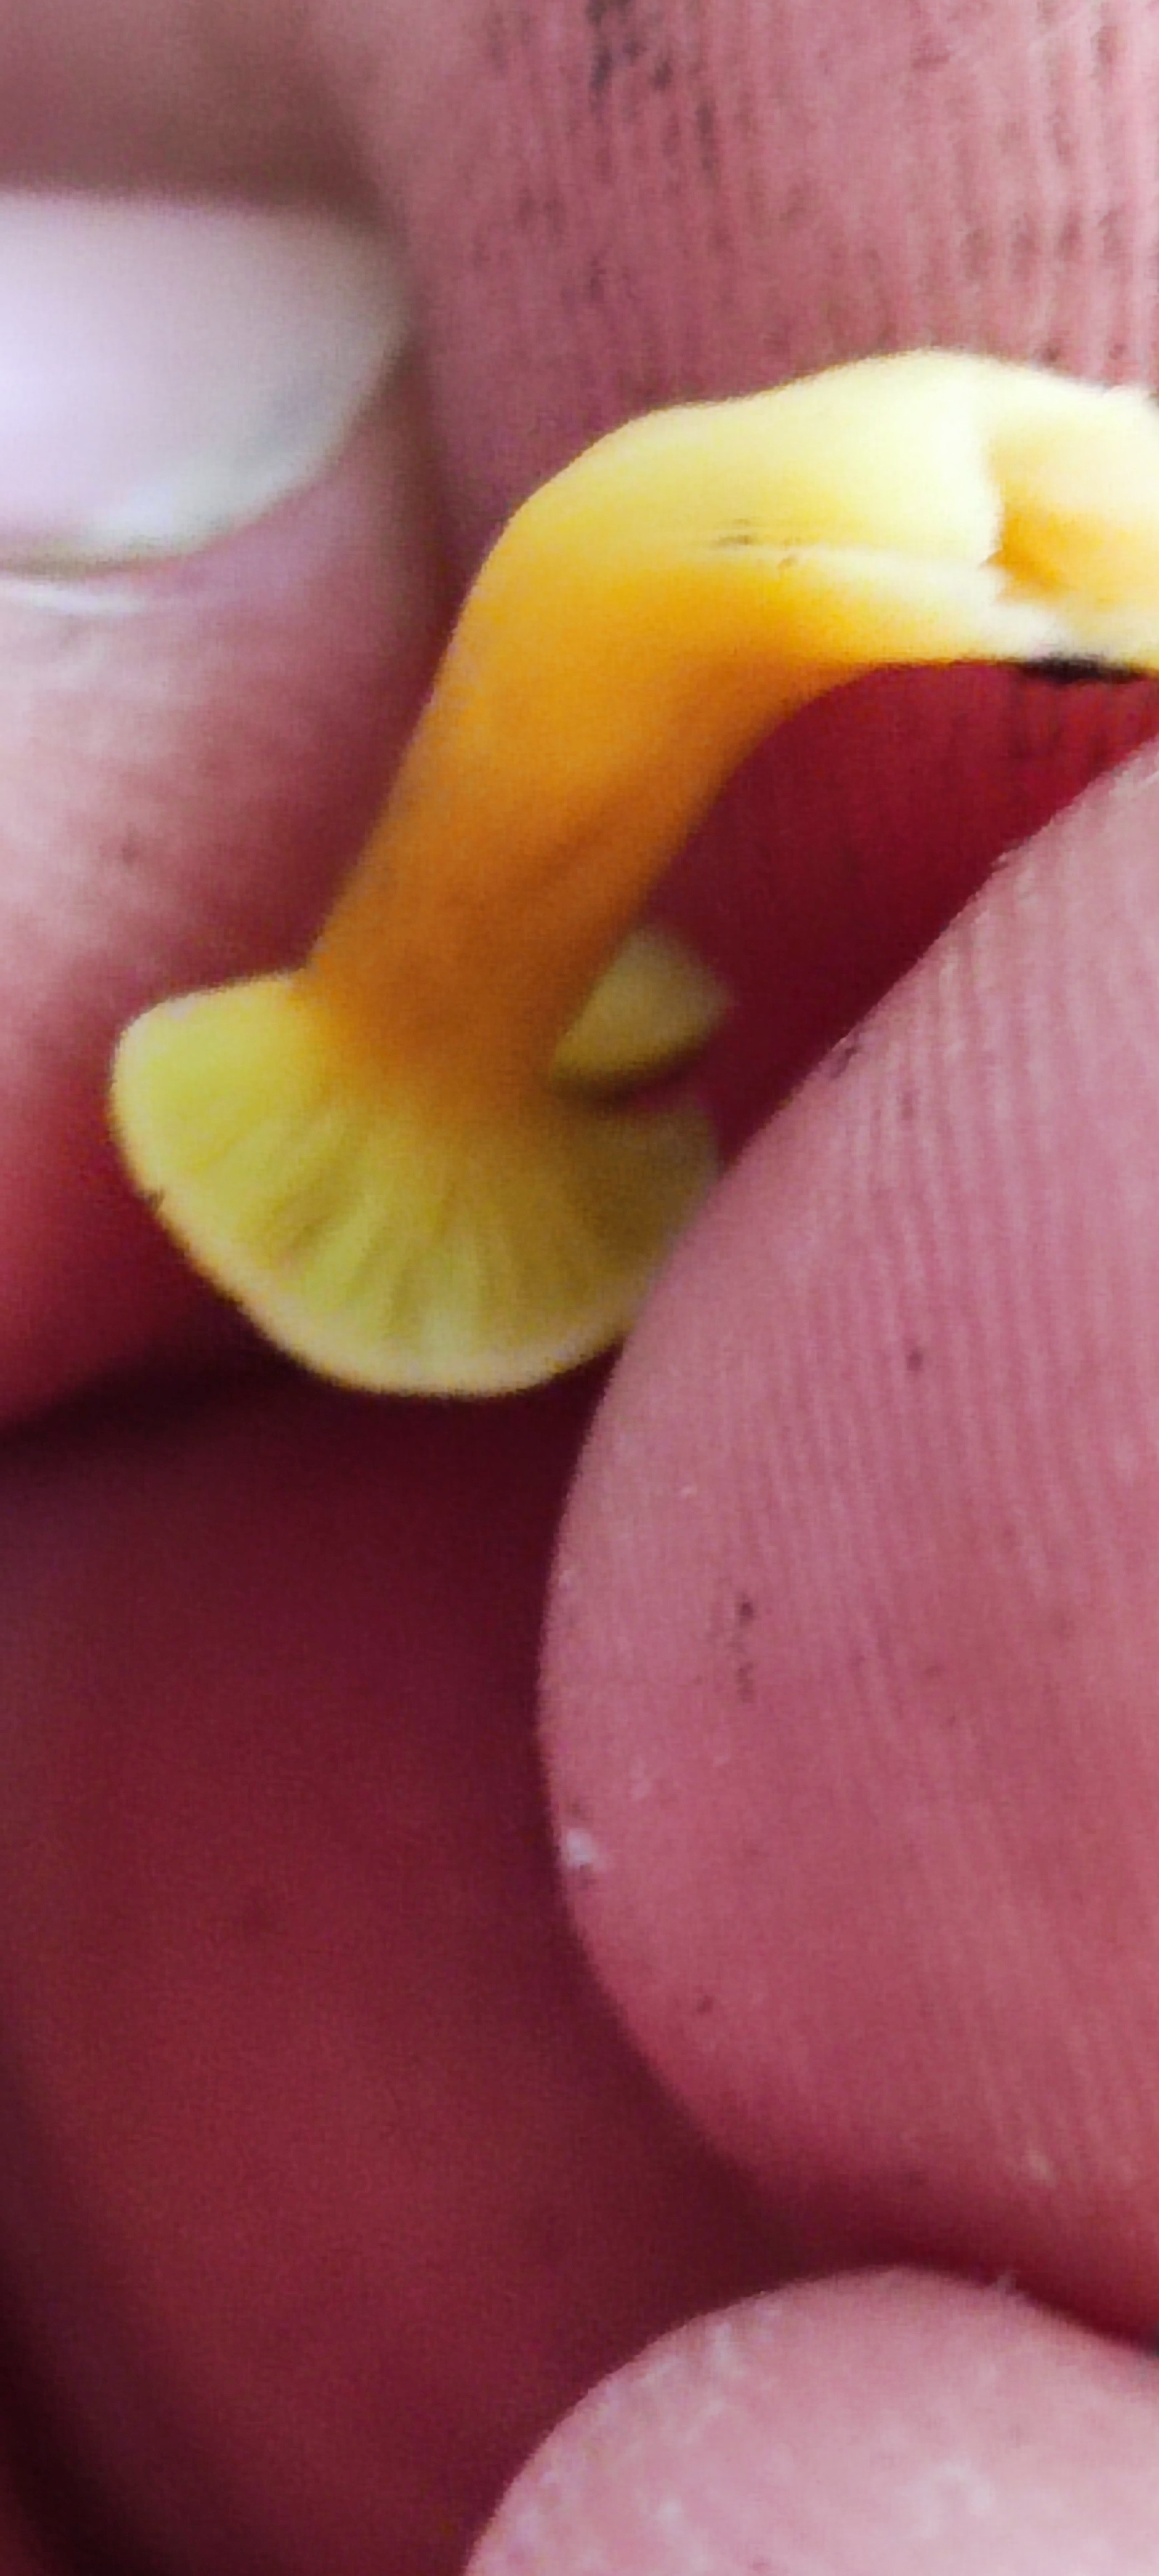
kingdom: Fungi
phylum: Basidiomycota
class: Agaricomycetes
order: Cantharellales
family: Hydnaceae
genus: Craterellus
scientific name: Craterellus tubaeformis
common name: tragt-kantarel
